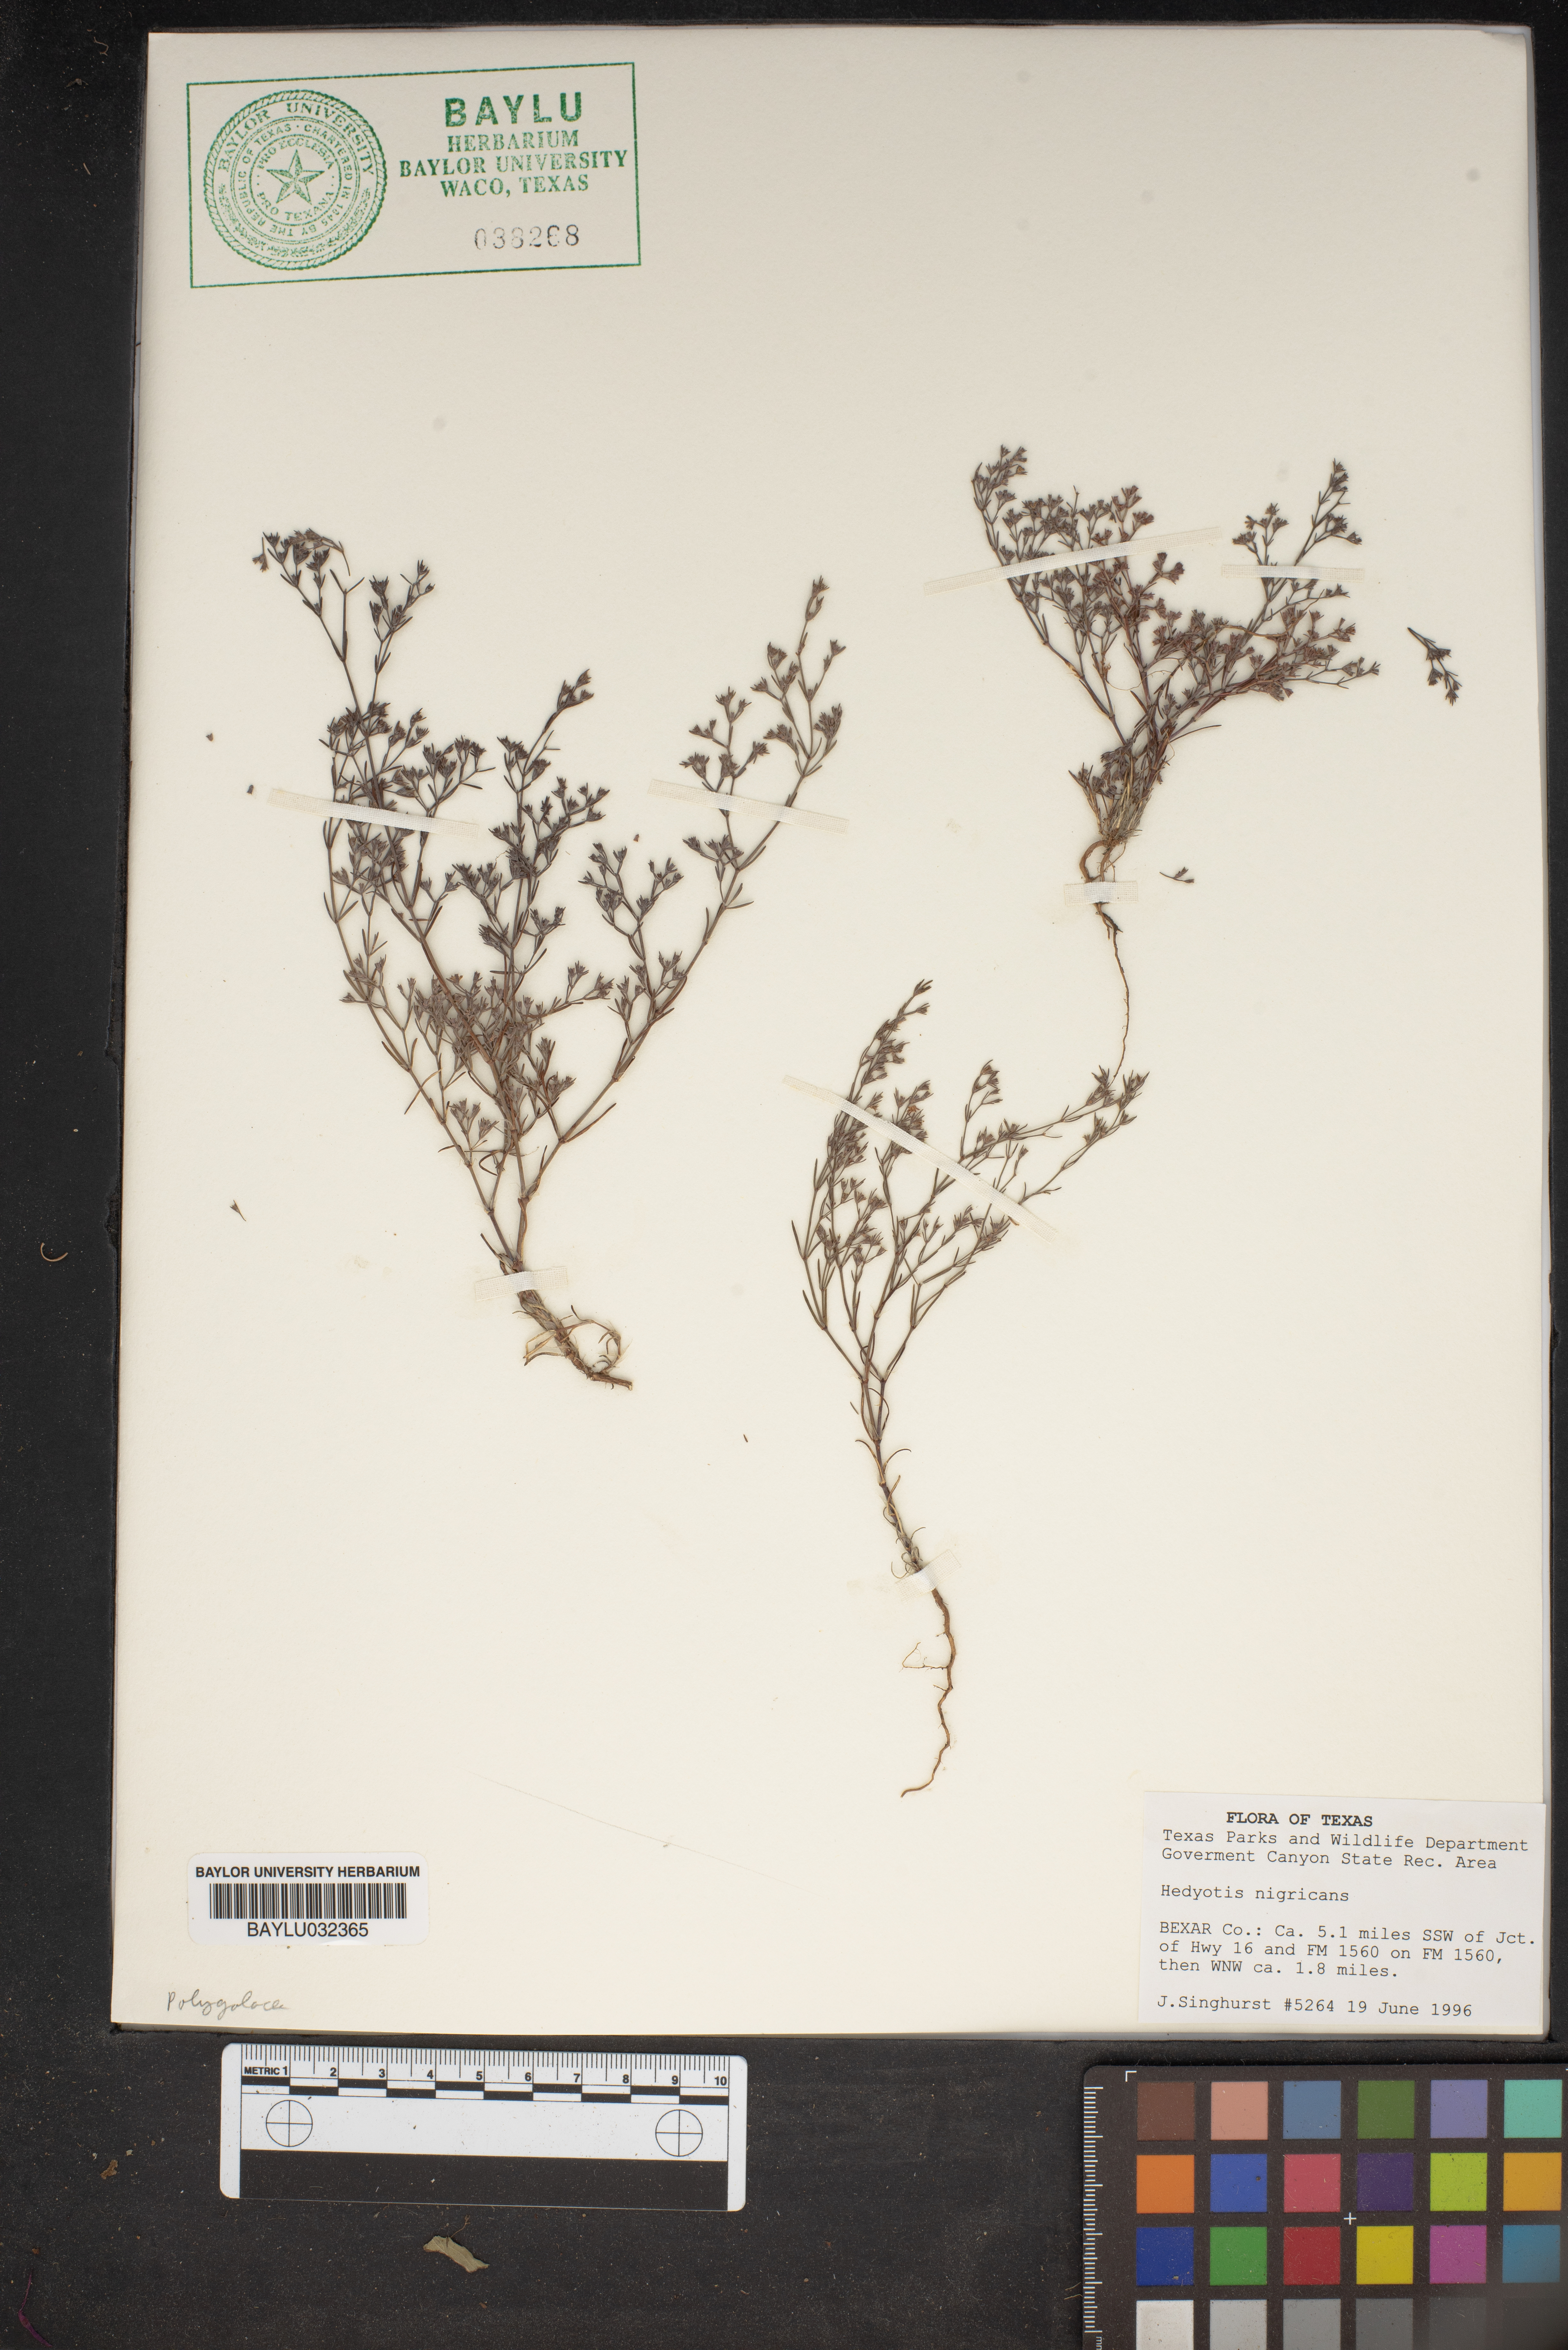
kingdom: Plantae
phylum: Tracheophyta
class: Magnoliopsida
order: Gentianales
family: Rubiaceae
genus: Stenaria
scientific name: Stenaria nigricans
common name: Diamondflowers
